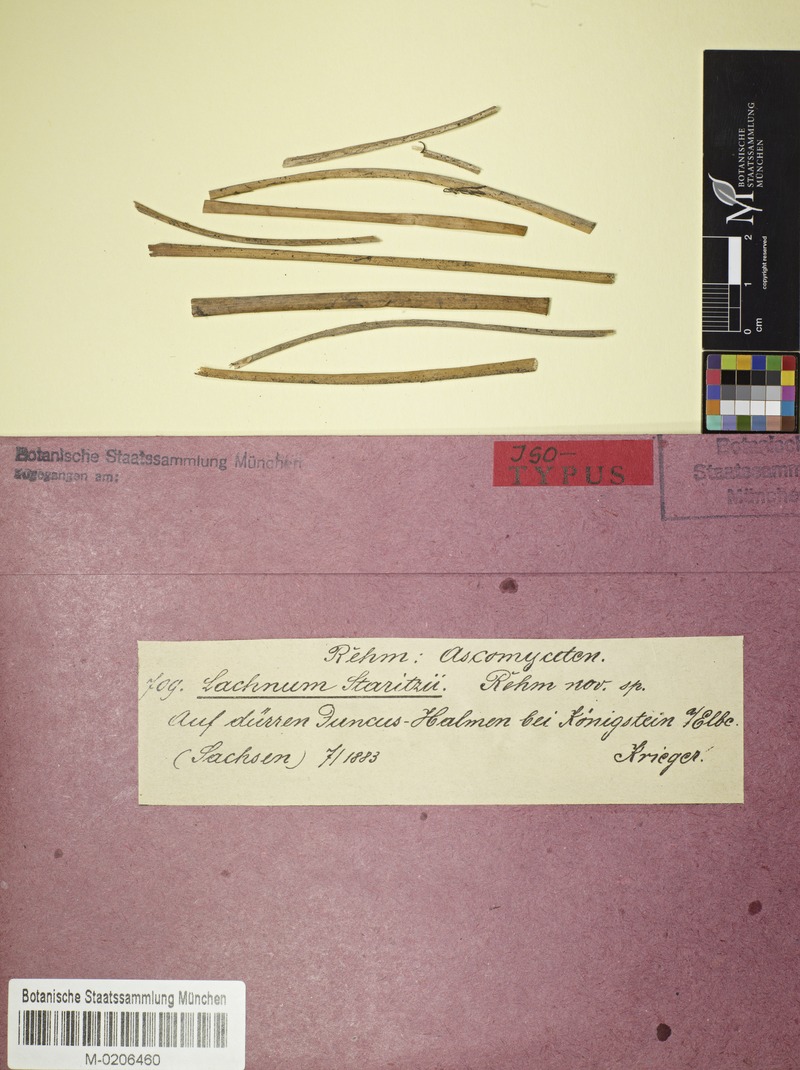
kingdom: Fungi
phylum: Ascomycota
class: Leotiomycetes
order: Helotiales
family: Lachnaceae
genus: Lachnum
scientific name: Lachnum diminutum
